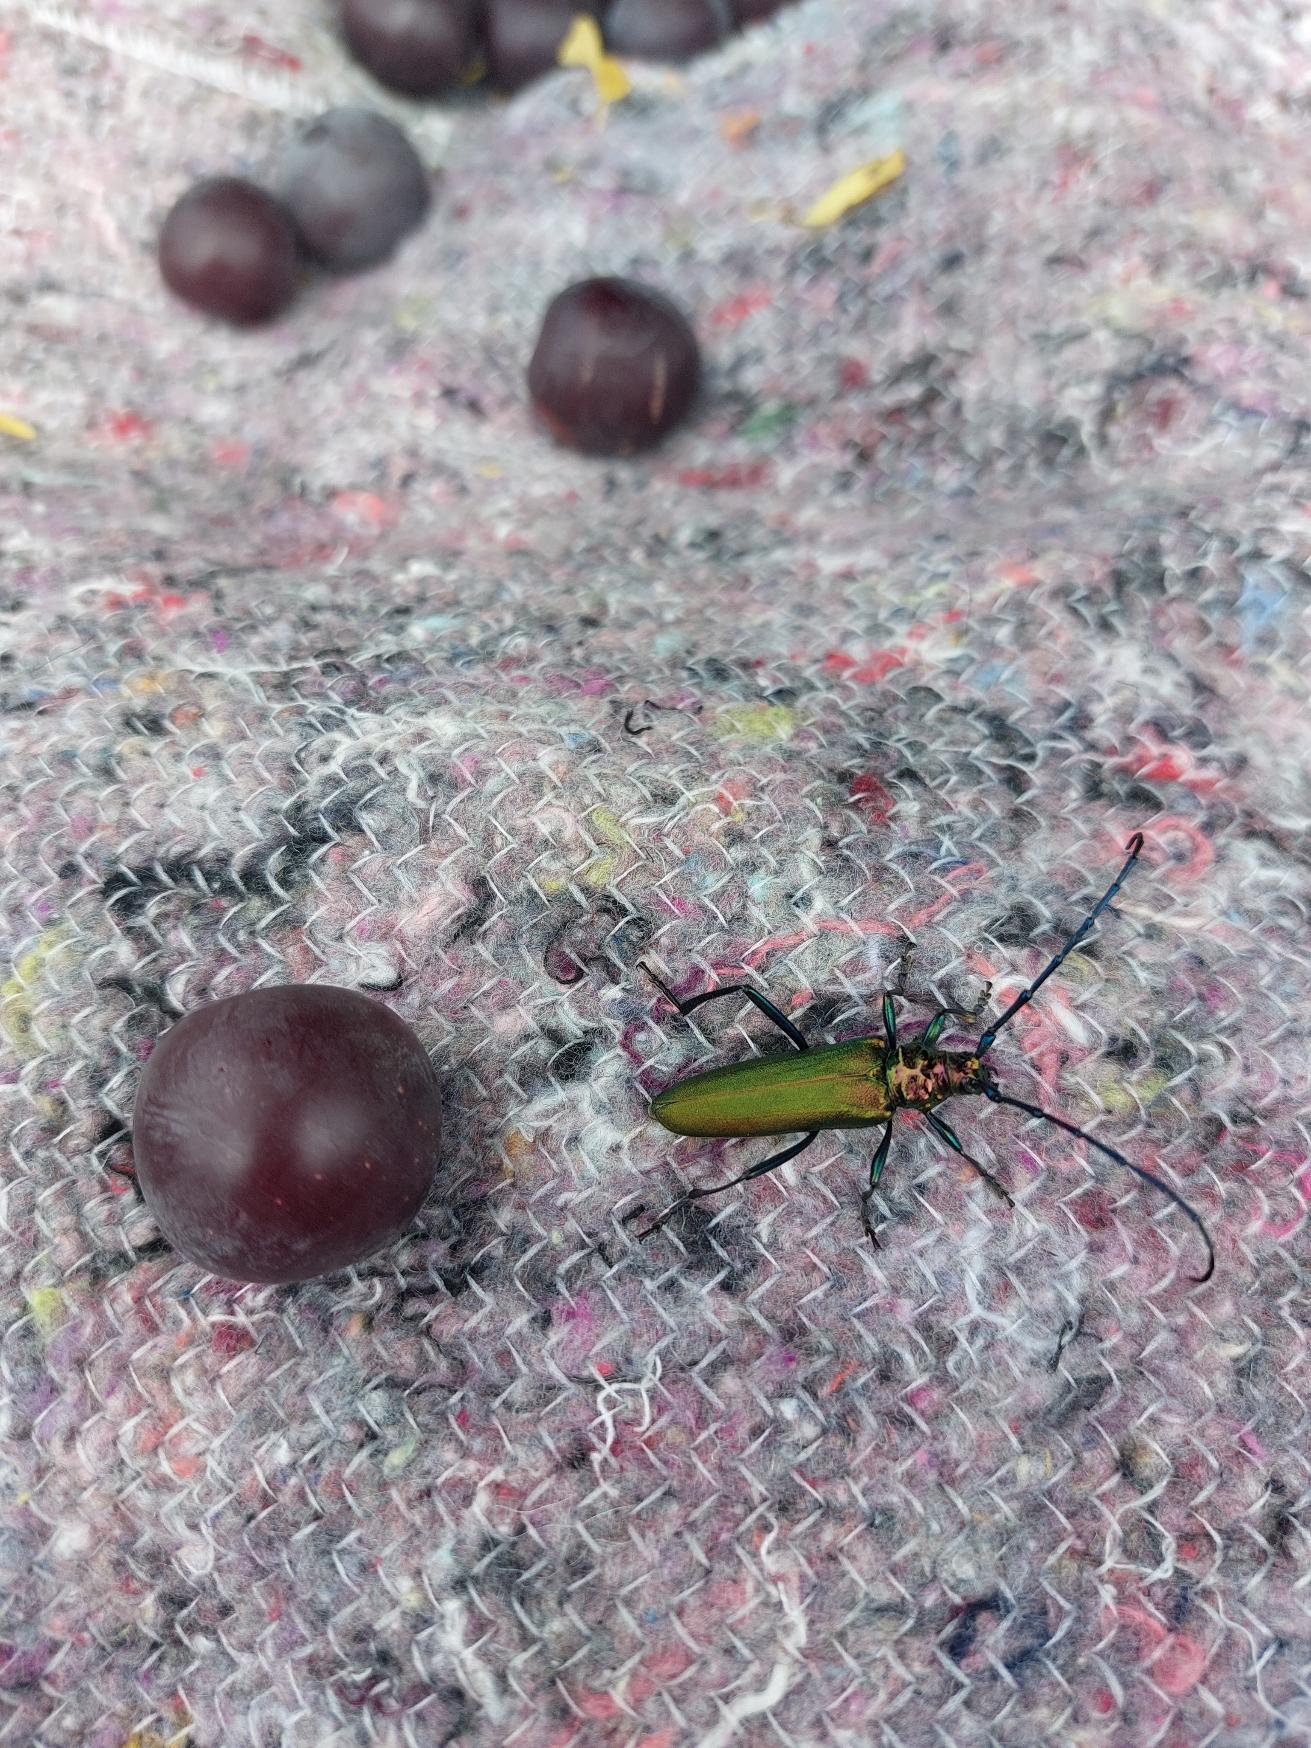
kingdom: Animalia
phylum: Arthropoda
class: Insecta
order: Coleoptera
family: Cerambycidae
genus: Aromia
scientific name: Aromia moschata
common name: Moskusbuk
